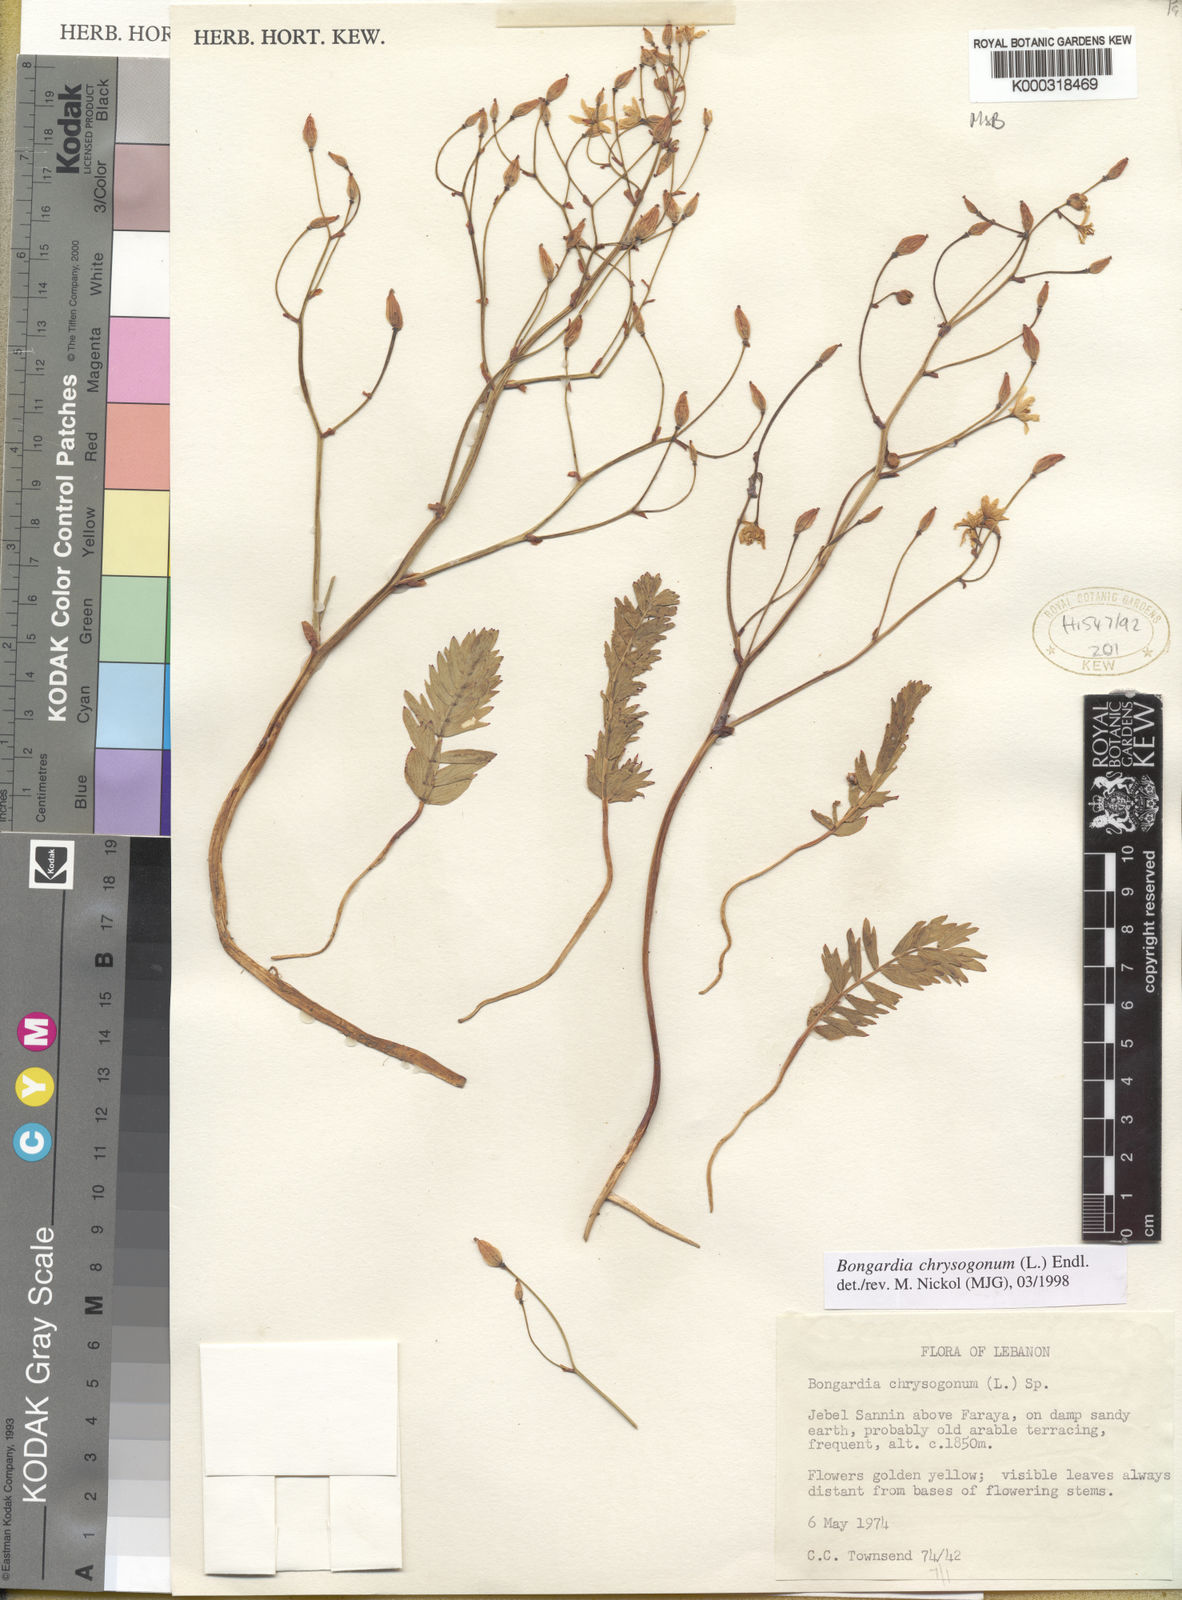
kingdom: Plantae
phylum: Tracheophyta
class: Magnoliopsida
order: Ranunculales
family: Berberidaceae
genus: Bongardia
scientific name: Bongardia chrysogonum
